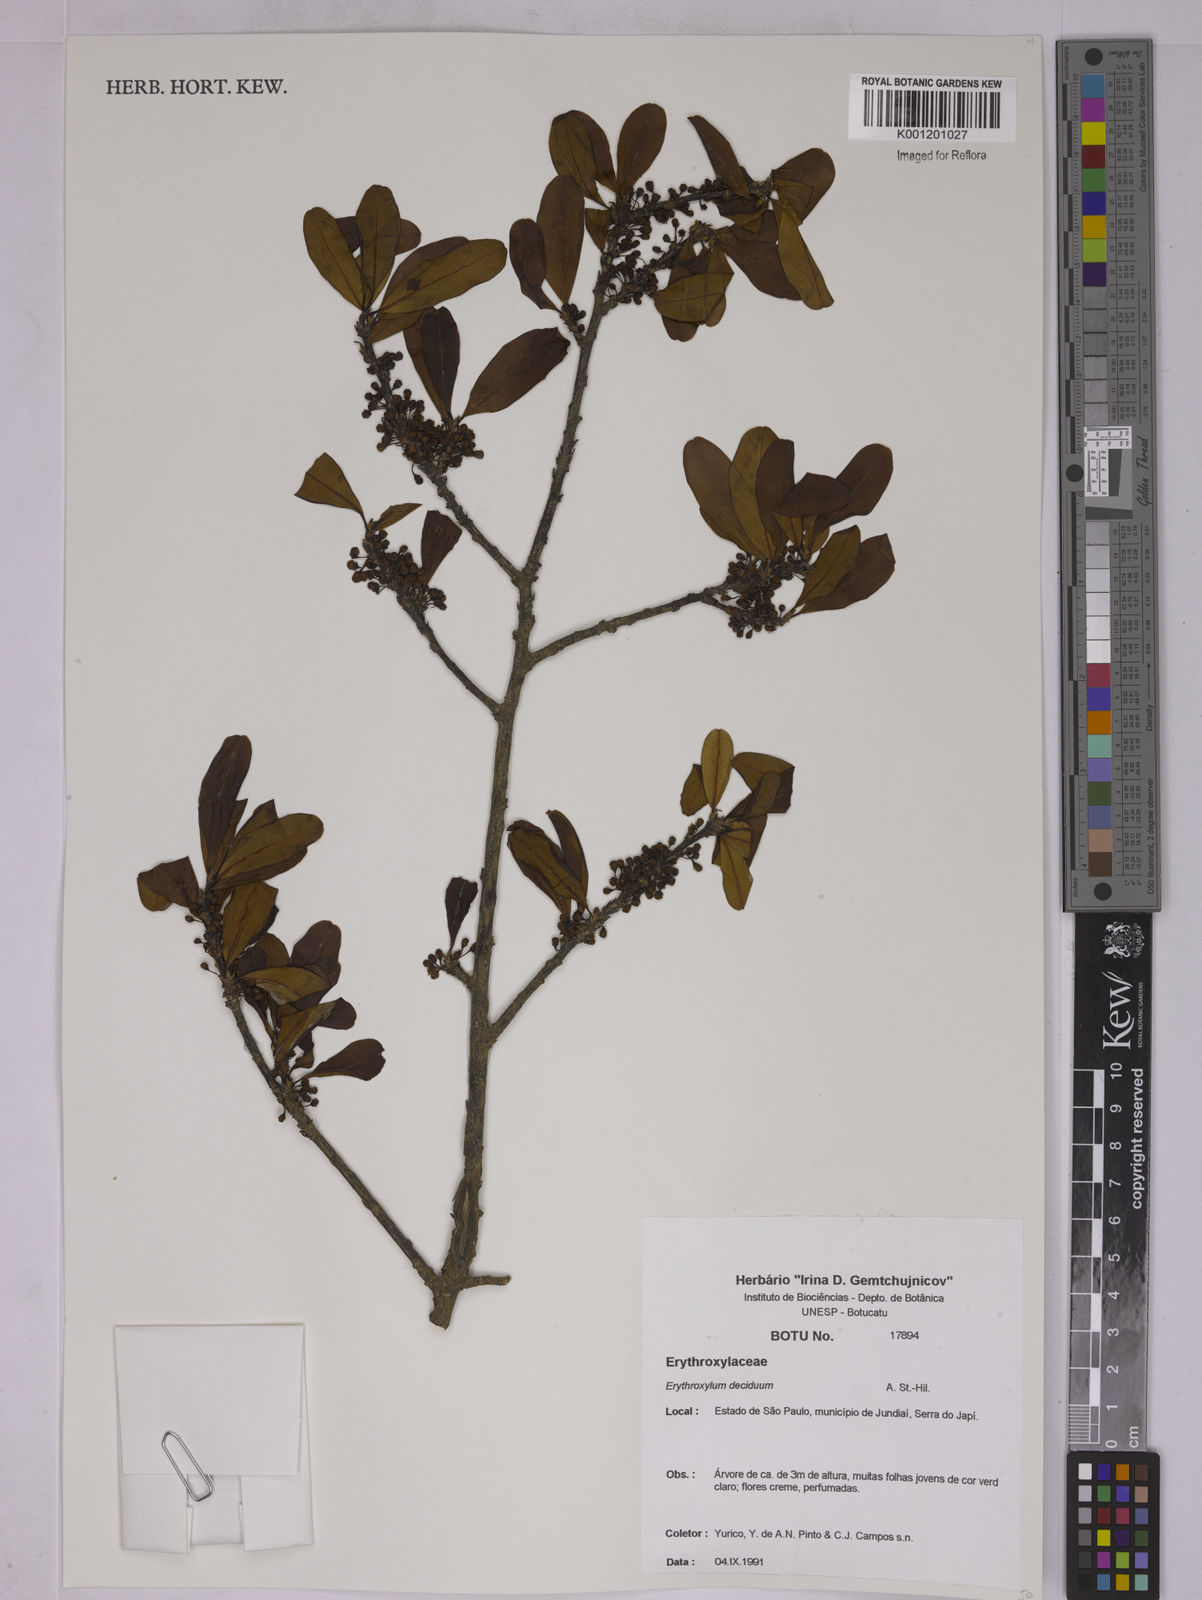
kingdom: Plantae
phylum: Tracheophyta
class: Magnoliopsida
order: Malpighiales
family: Erythroxylaceae
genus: Erythroxylum
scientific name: Erythroxylum deciduum
